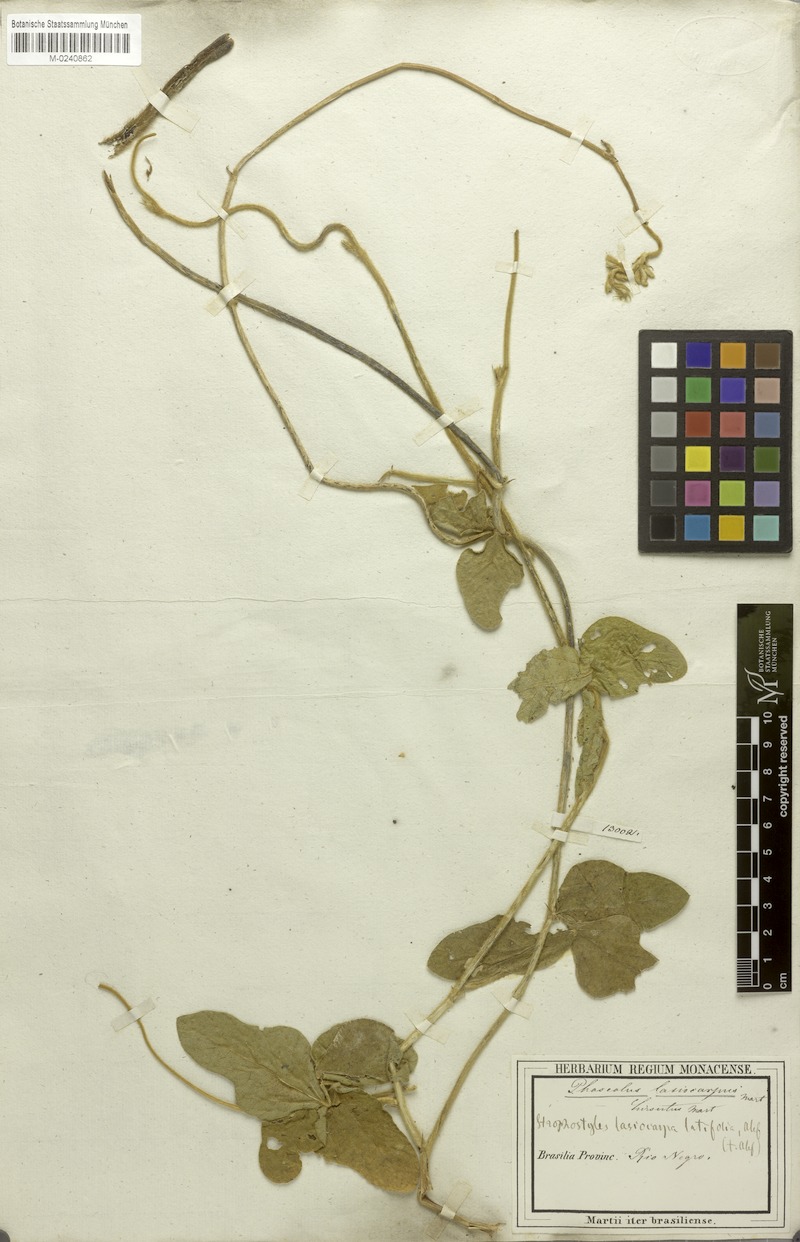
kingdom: Plantae
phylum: Tracheophyta
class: Magnoliopsida
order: Fabales
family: Fabaceae
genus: Vigna
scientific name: Vigna lasiocarpa
